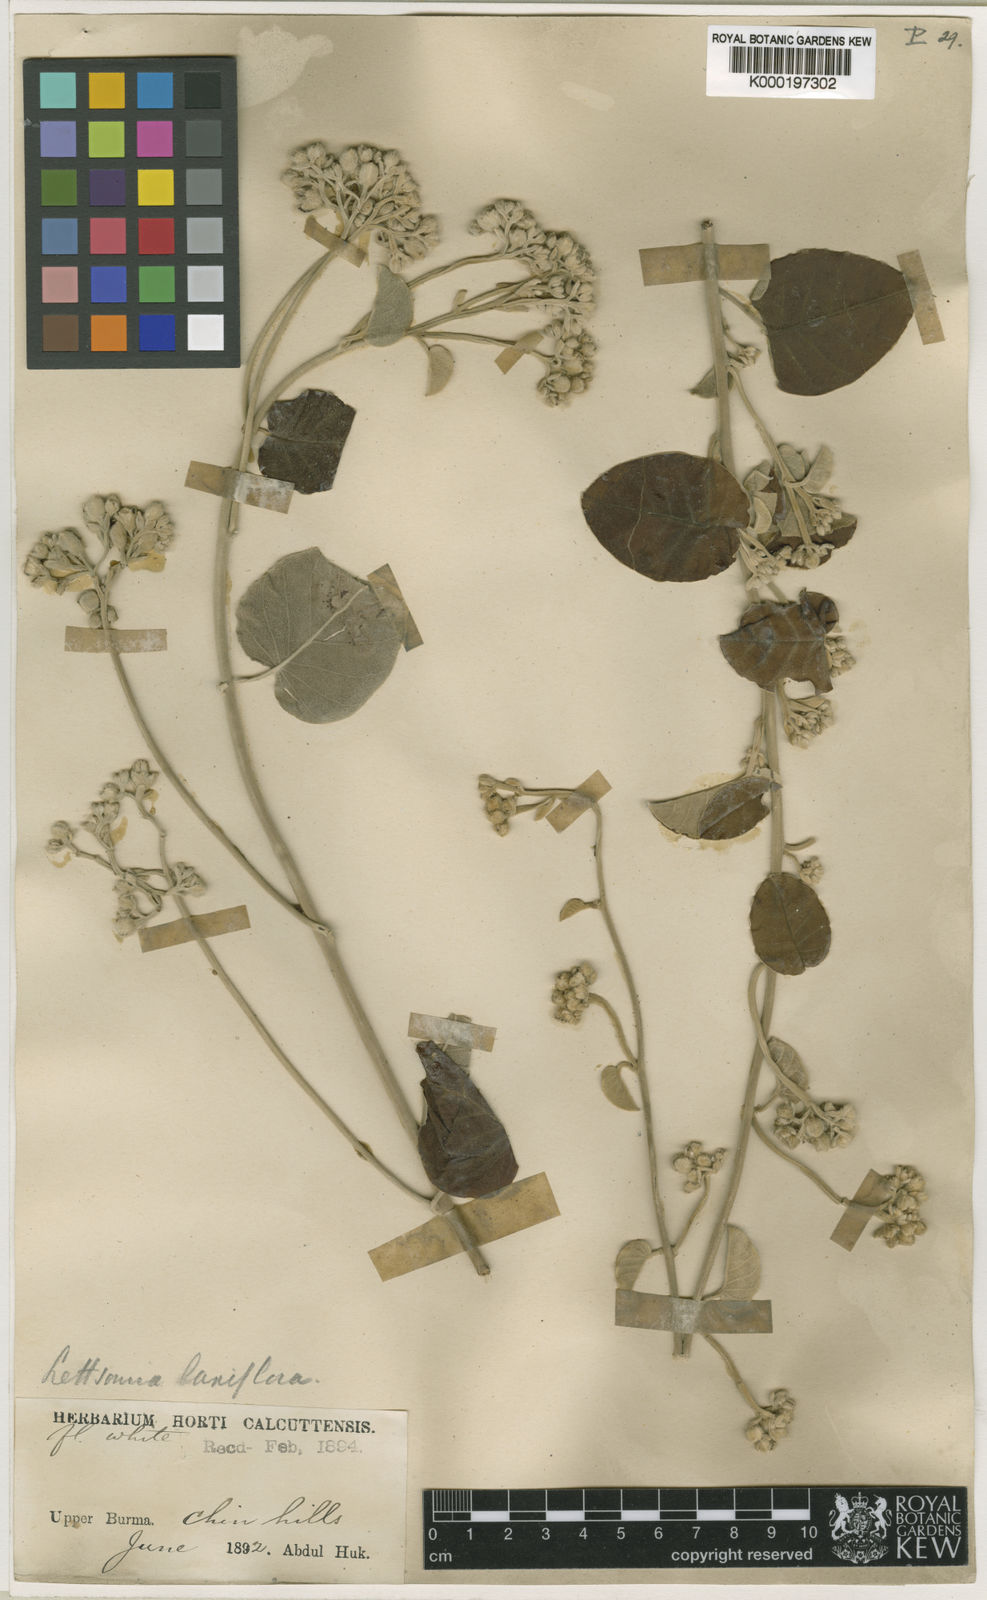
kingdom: Plantae
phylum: Tracheophyta
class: Magnoliopsida
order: Solanales
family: Convolvulaceae
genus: Argyreia
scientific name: Argyreia
